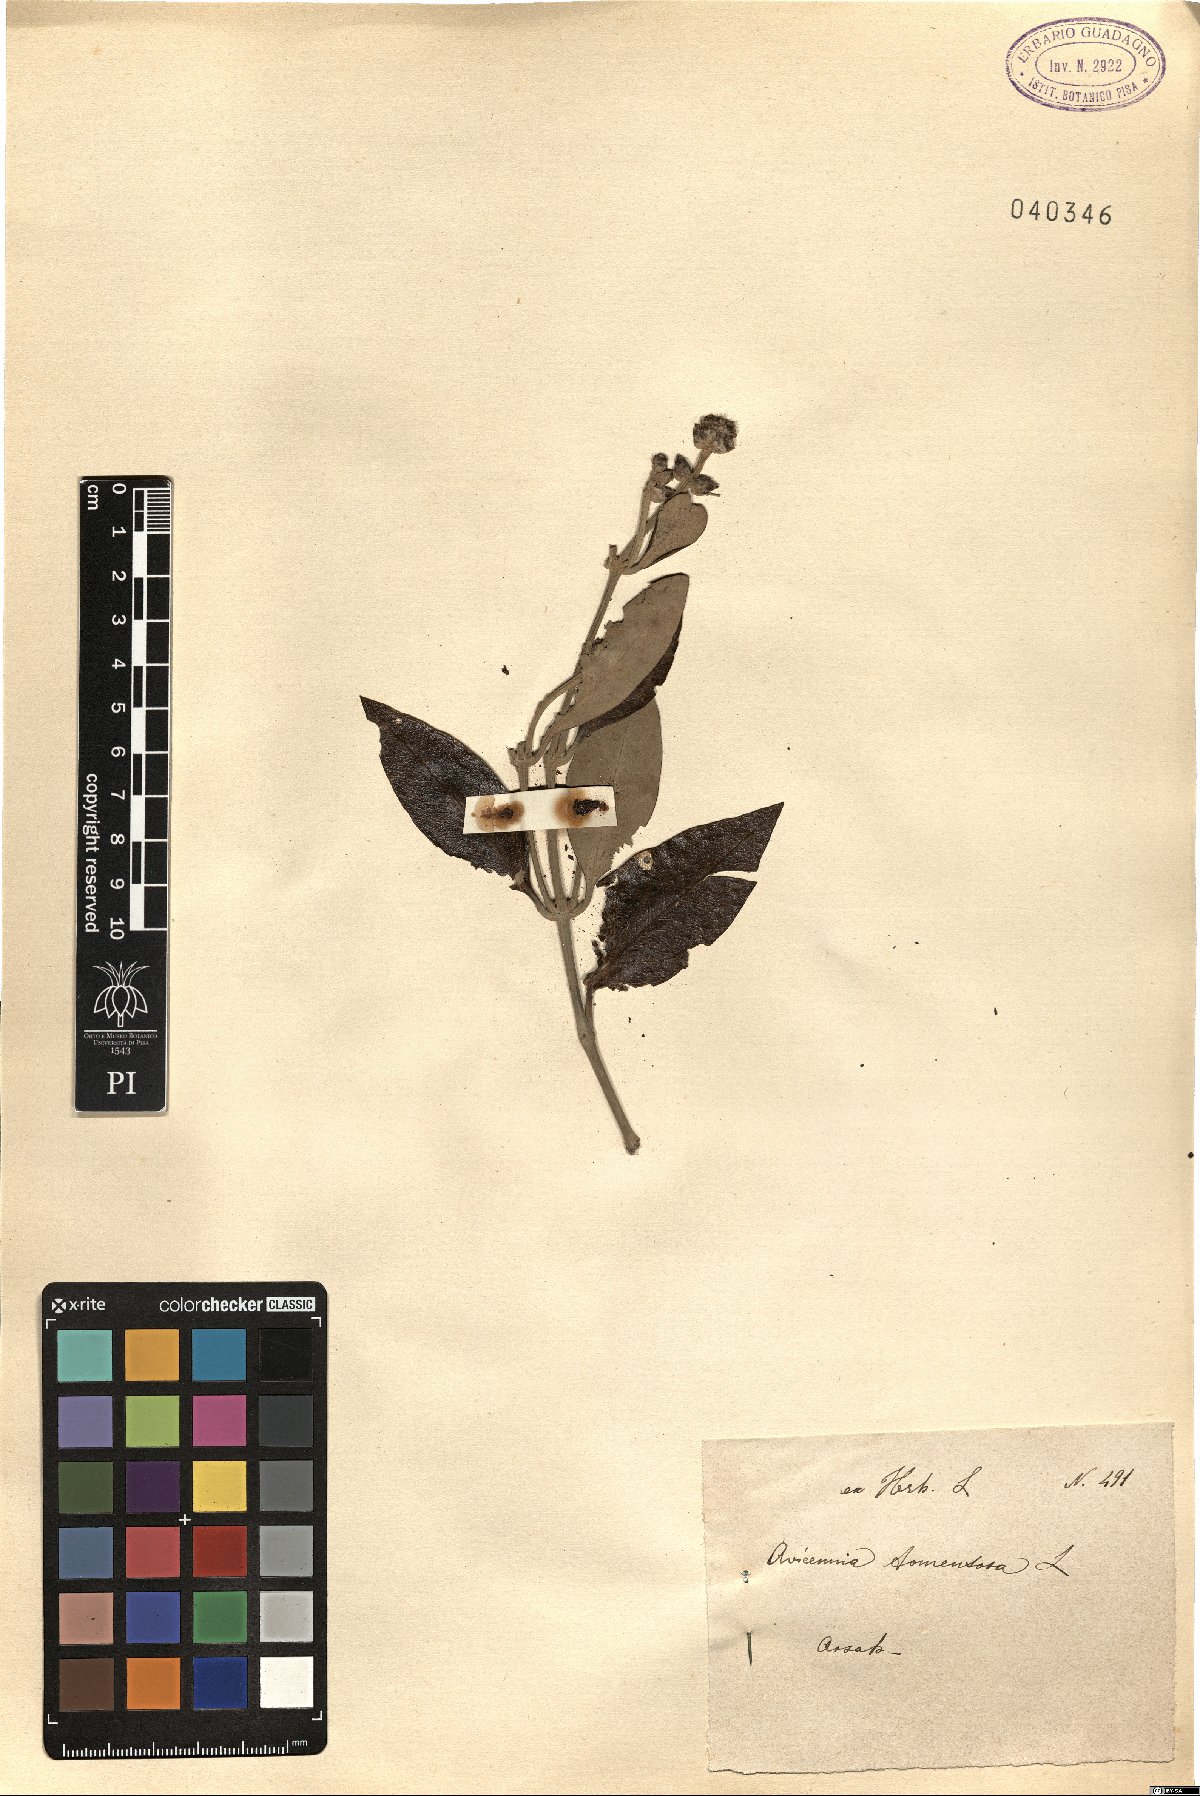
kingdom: Plantae
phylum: Tracheophyta
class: Magnoliopsida
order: Lamiales
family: Acanthaceae
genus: Avicennia
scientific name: Avicennia germinans
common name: Black mangrove
